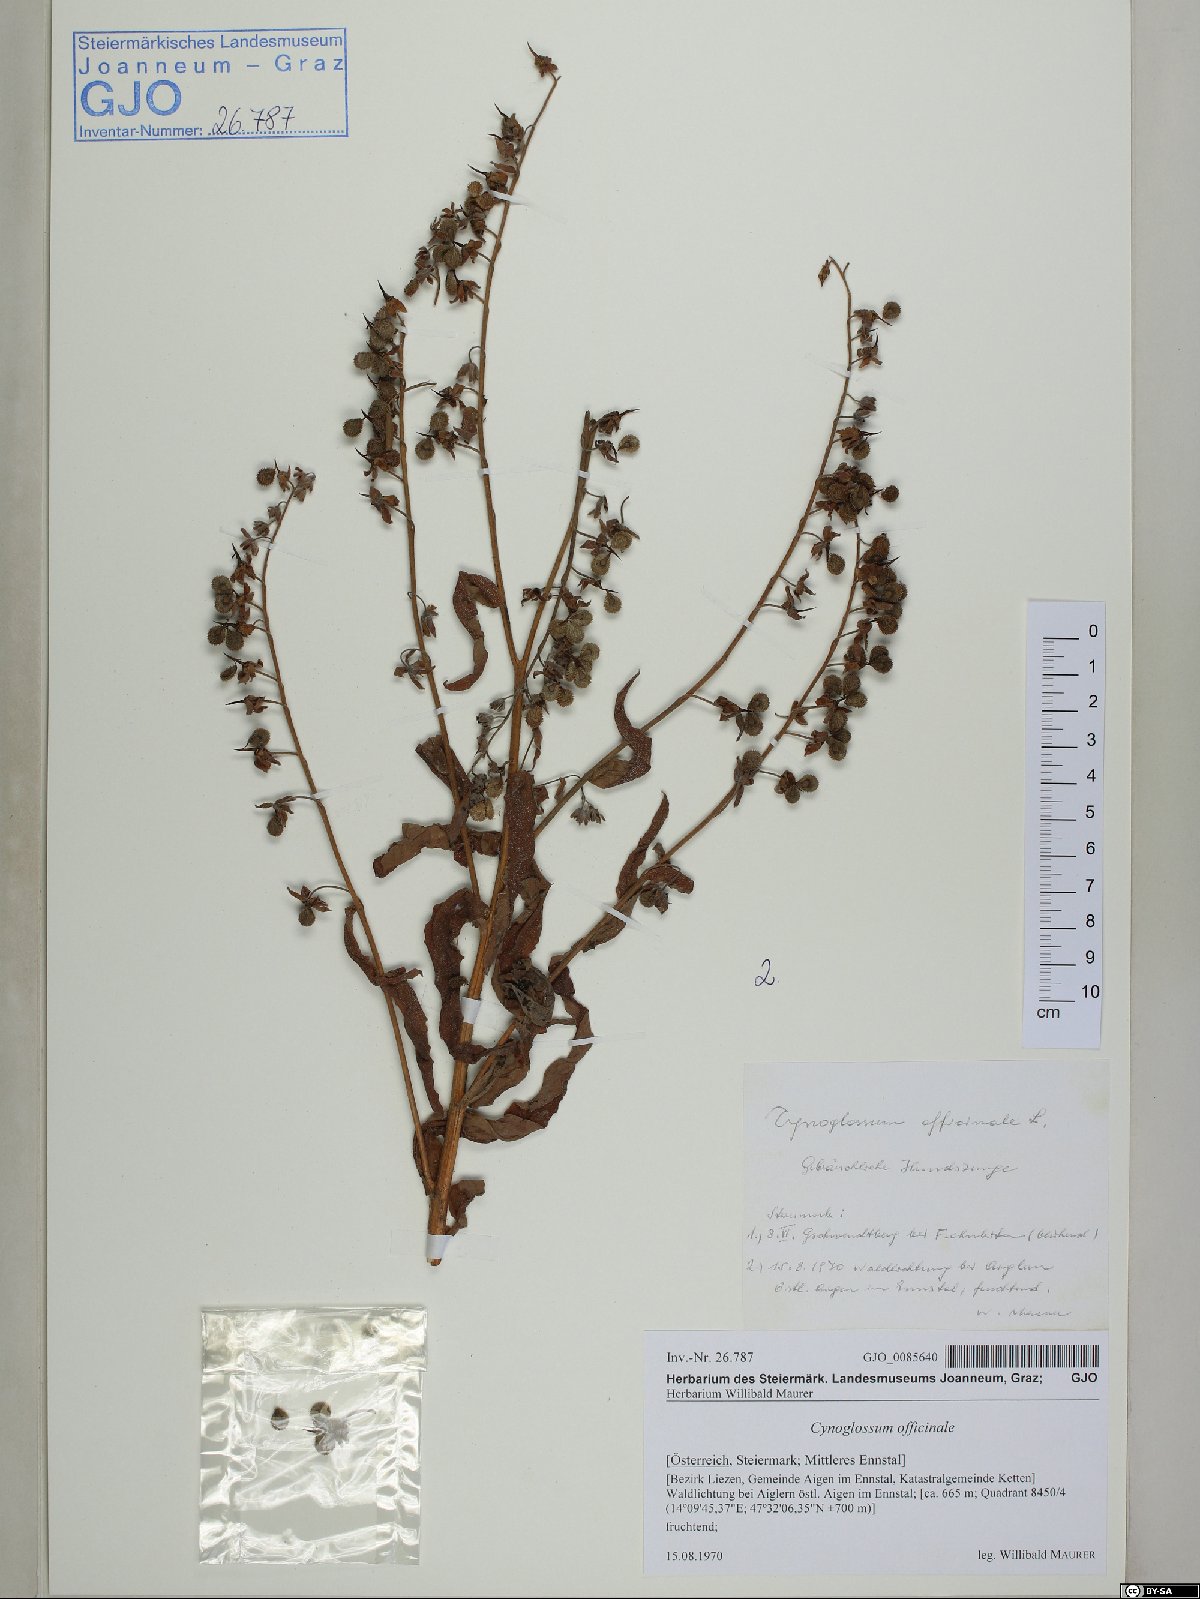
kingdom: Plantae
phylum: Tracheophyta
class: Magnoliopsida
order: Boraginales
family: Boraginaceae
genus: Cynoglossum
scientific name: Cynoglossum officinale
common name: Hound's-tongue
